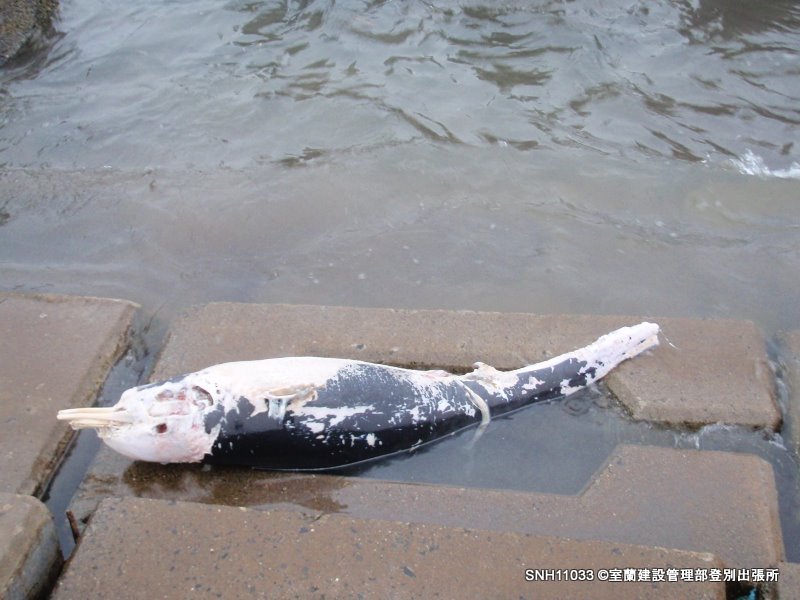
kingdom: Animalia
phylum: Chordata
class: Mammalia
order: Cetacea
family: Delphinidae
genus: Lissodelphis
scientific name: Lissodelphis borealis
